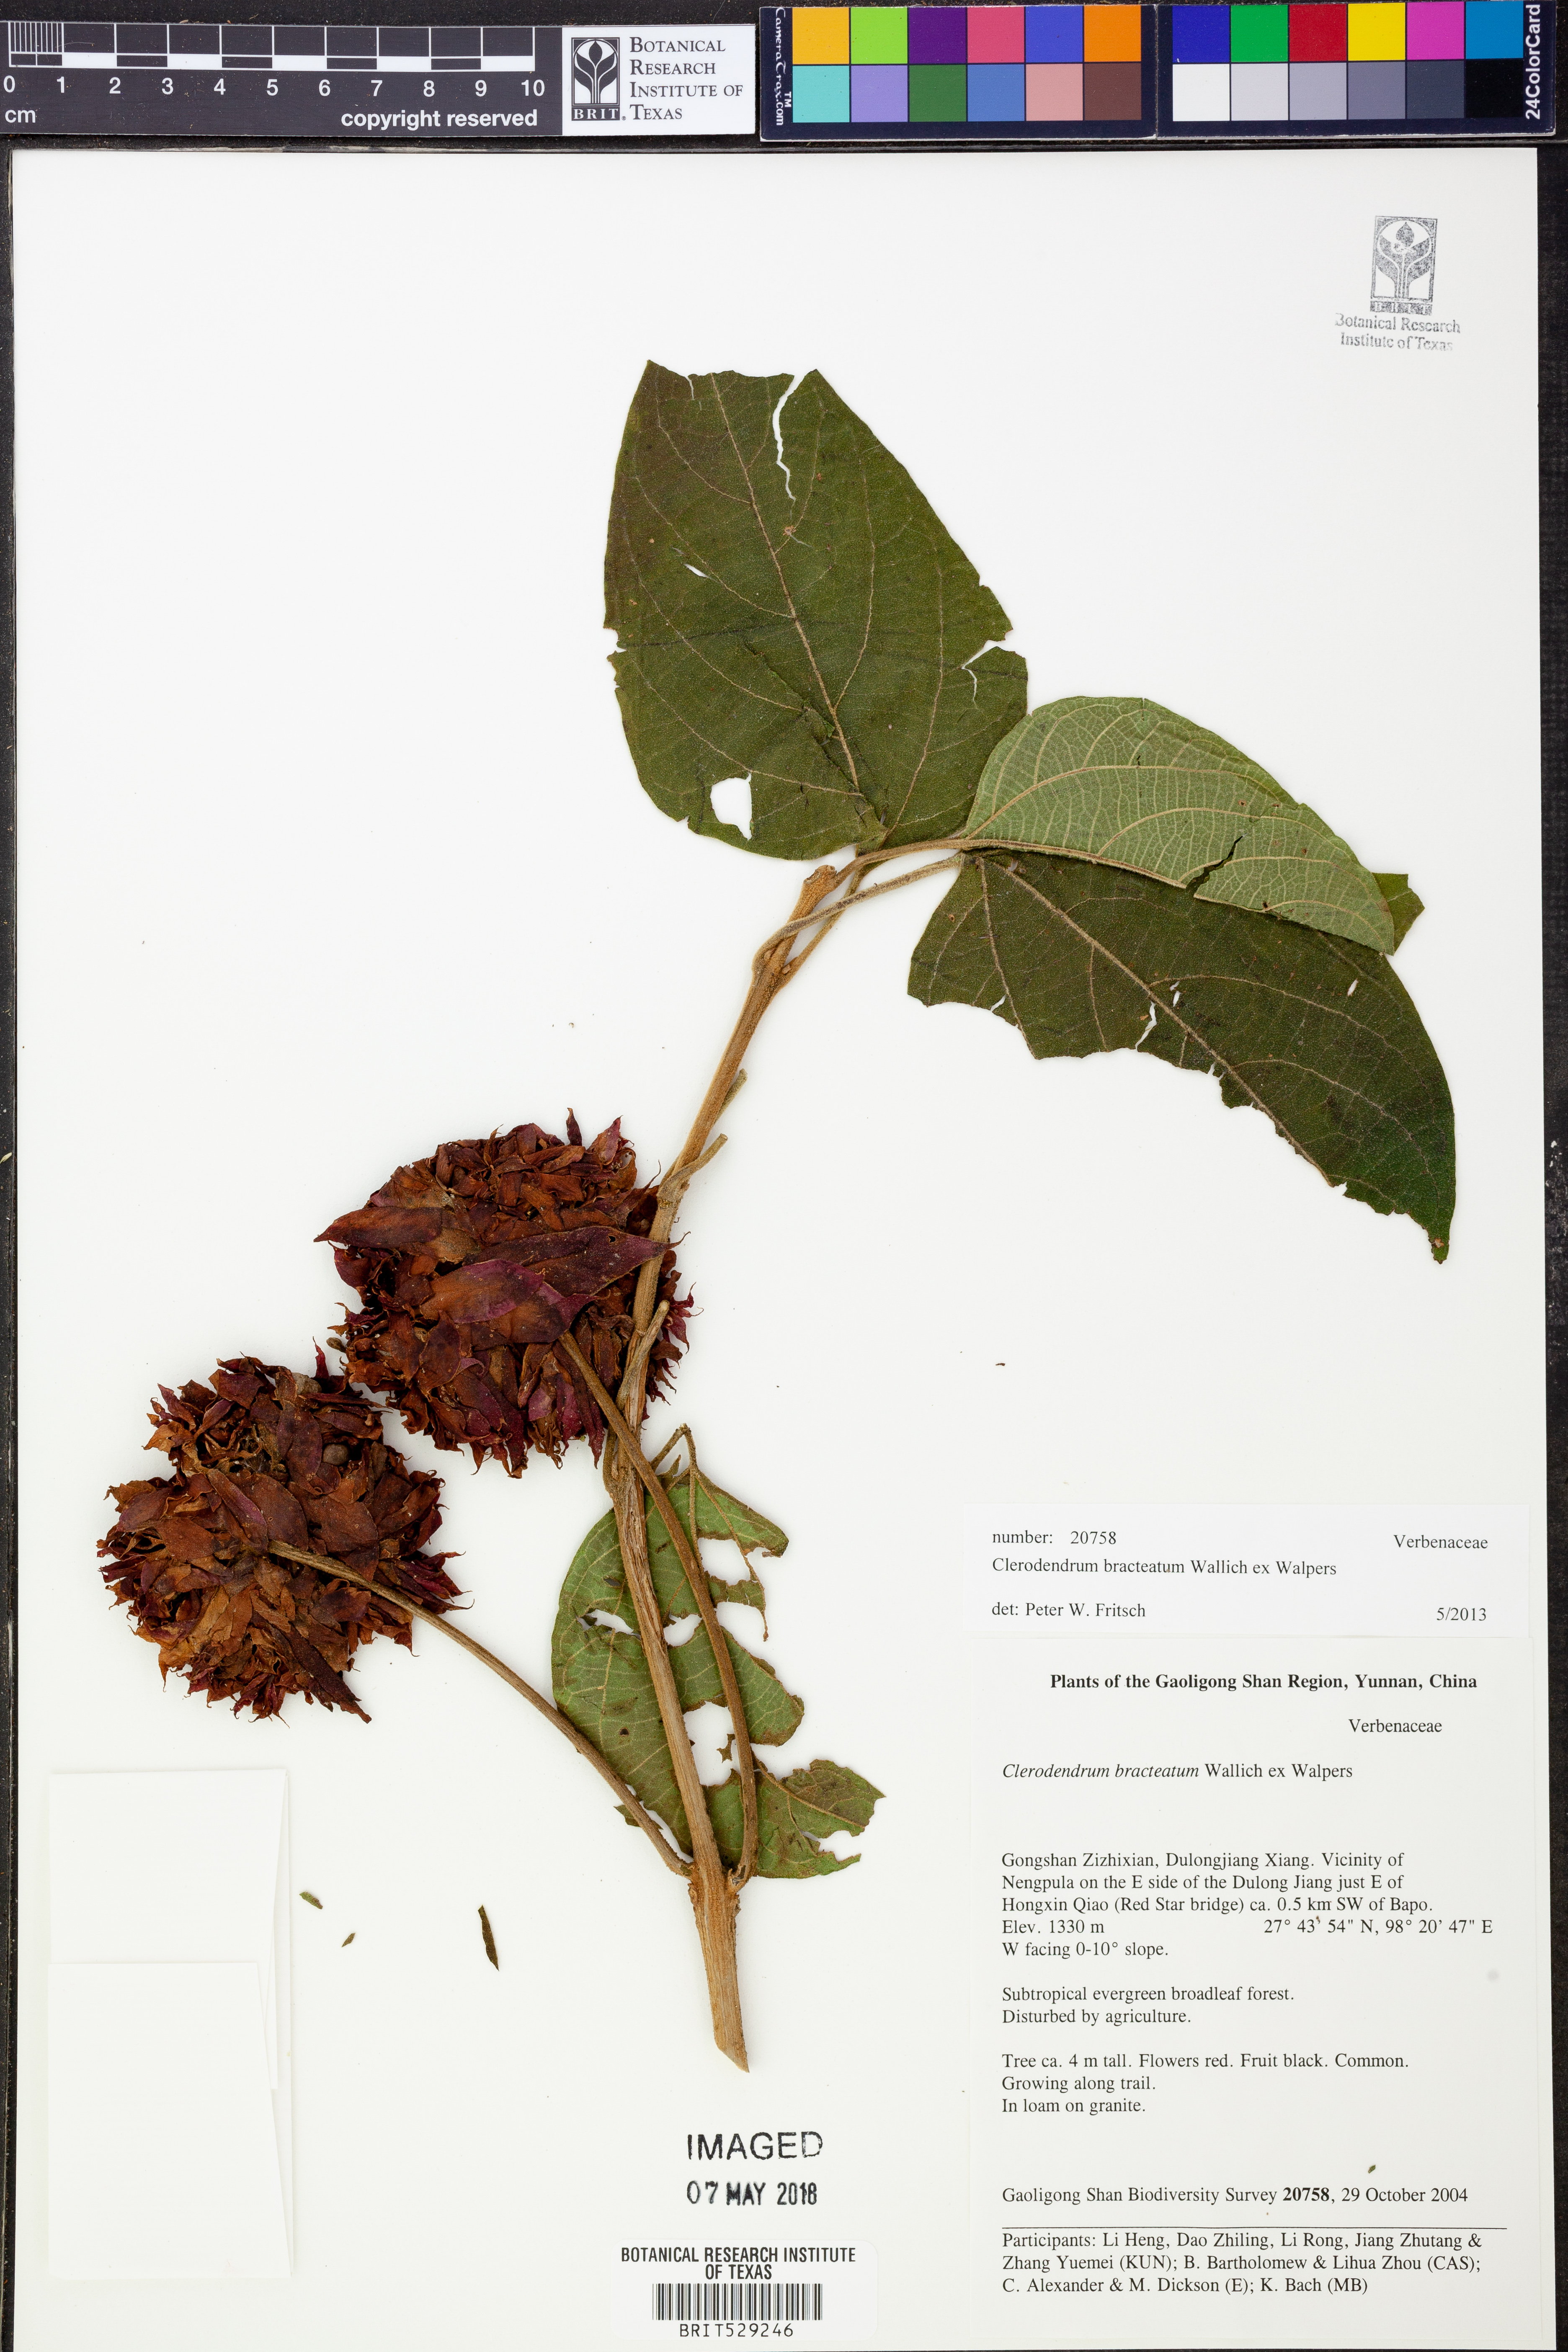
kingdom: Plantae
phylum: Tracheophyta
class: Magnoliopsida
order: Lamiales
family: Lamiaceae
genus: Clerodendrum
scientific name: Clerodendrum bracteatum
